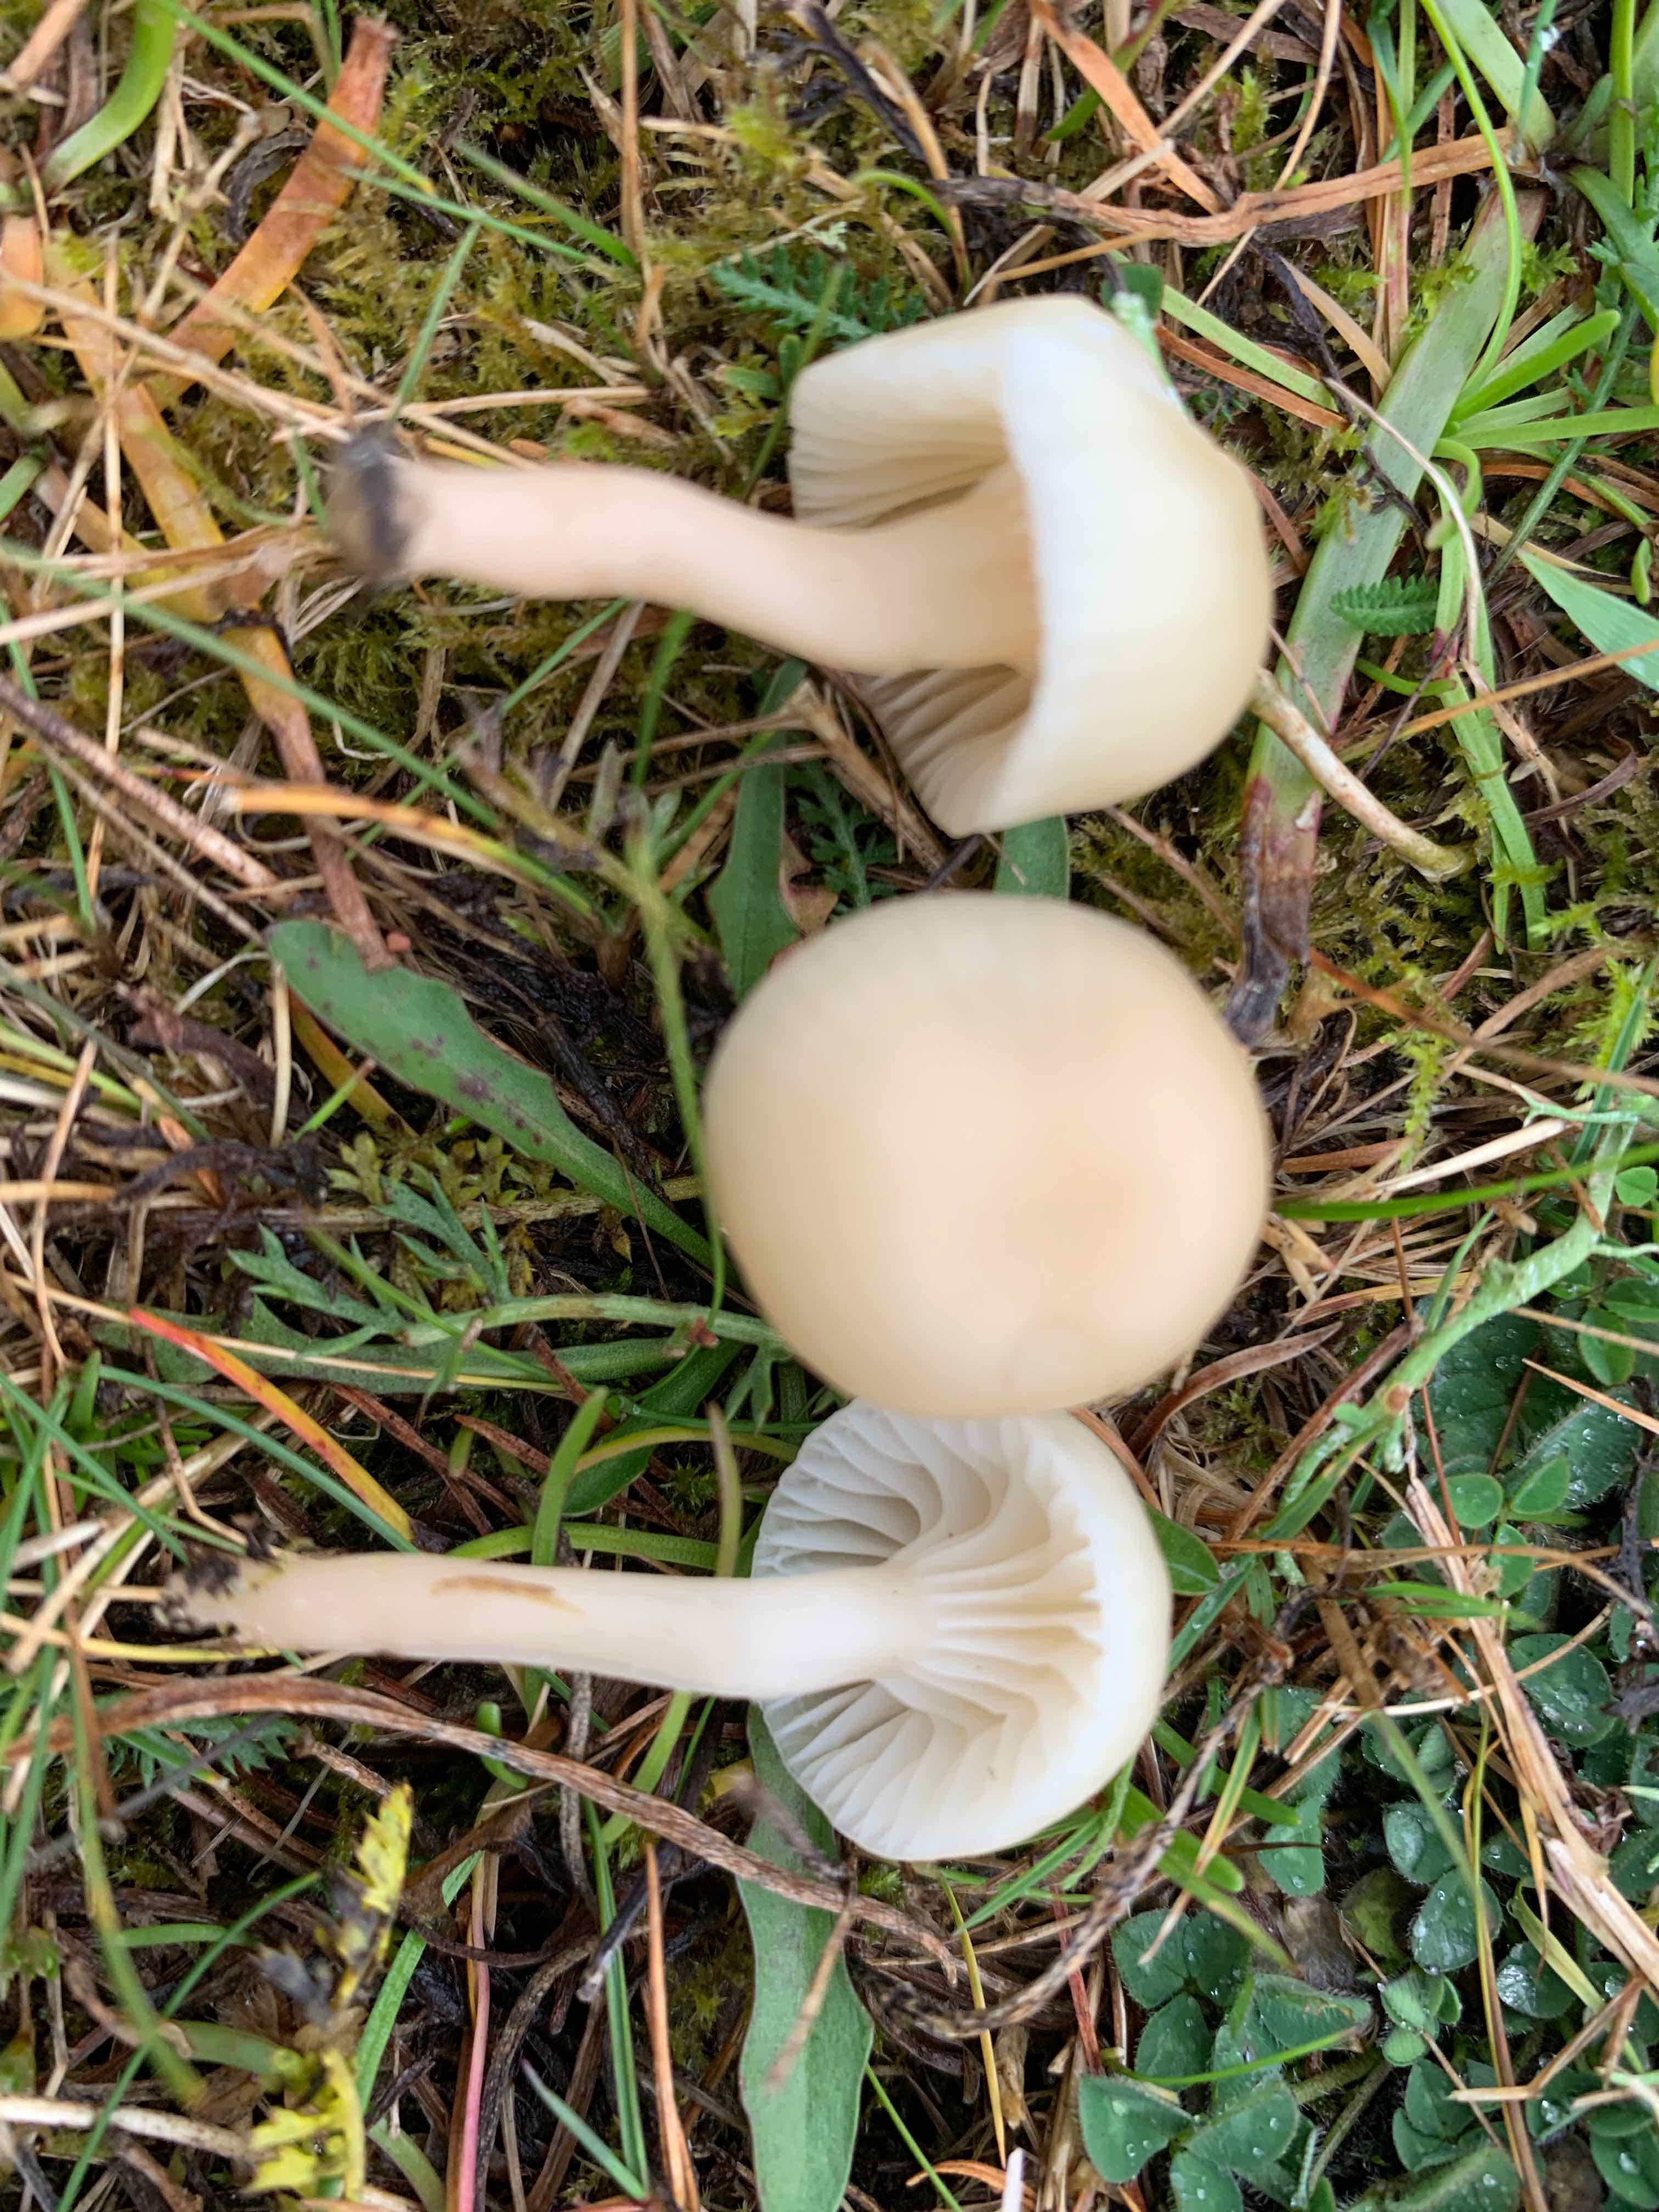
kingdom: Fungi
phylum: Basidiomycota
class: Agaricomycetes
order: Agaricales
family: Hygrophoraceae
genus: Cuphophyllus
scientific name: Cuphophyllus russocoriaceus
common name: ruslæder-vokshat
